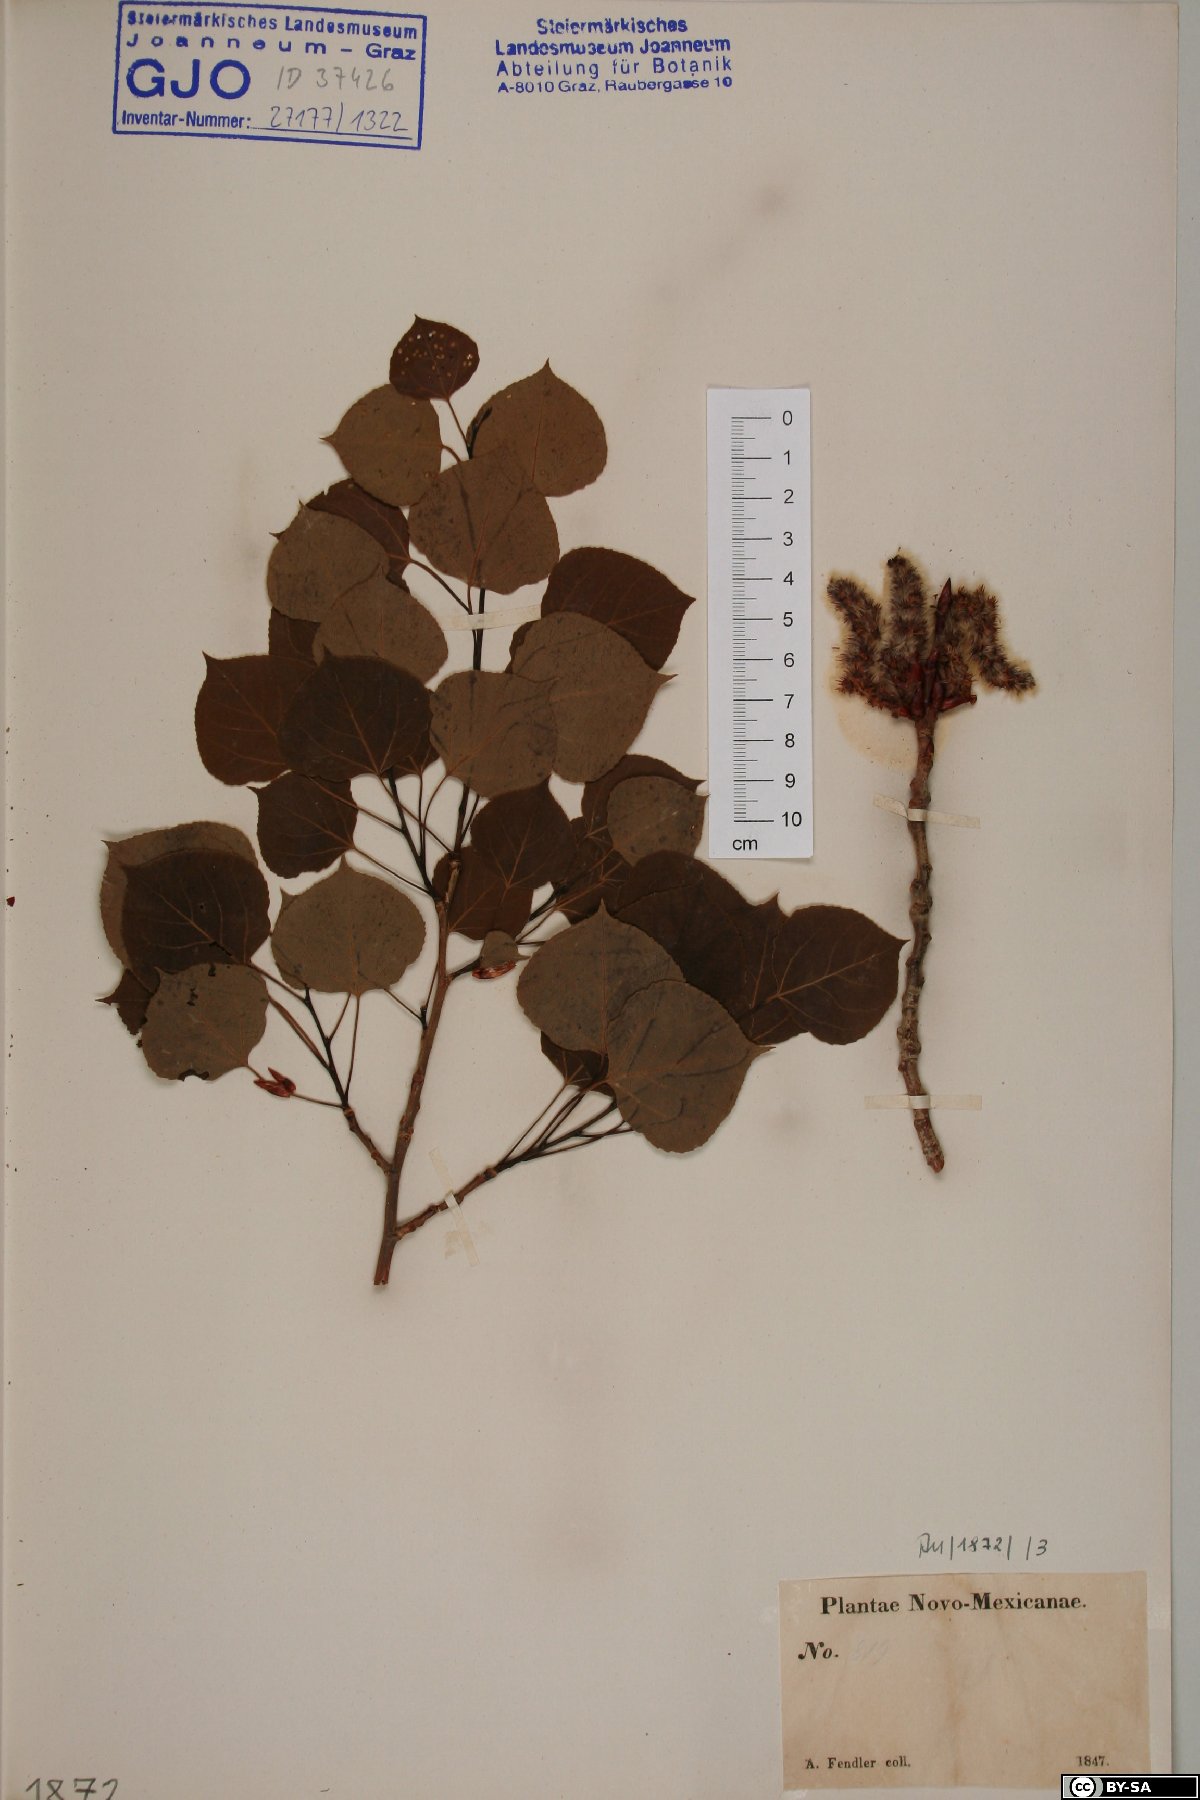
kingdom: Plantae
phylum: Tracheophyta
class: Magnoliopsida
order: Malpighiales
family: Salicaceae
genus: Populus
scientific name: Populus
